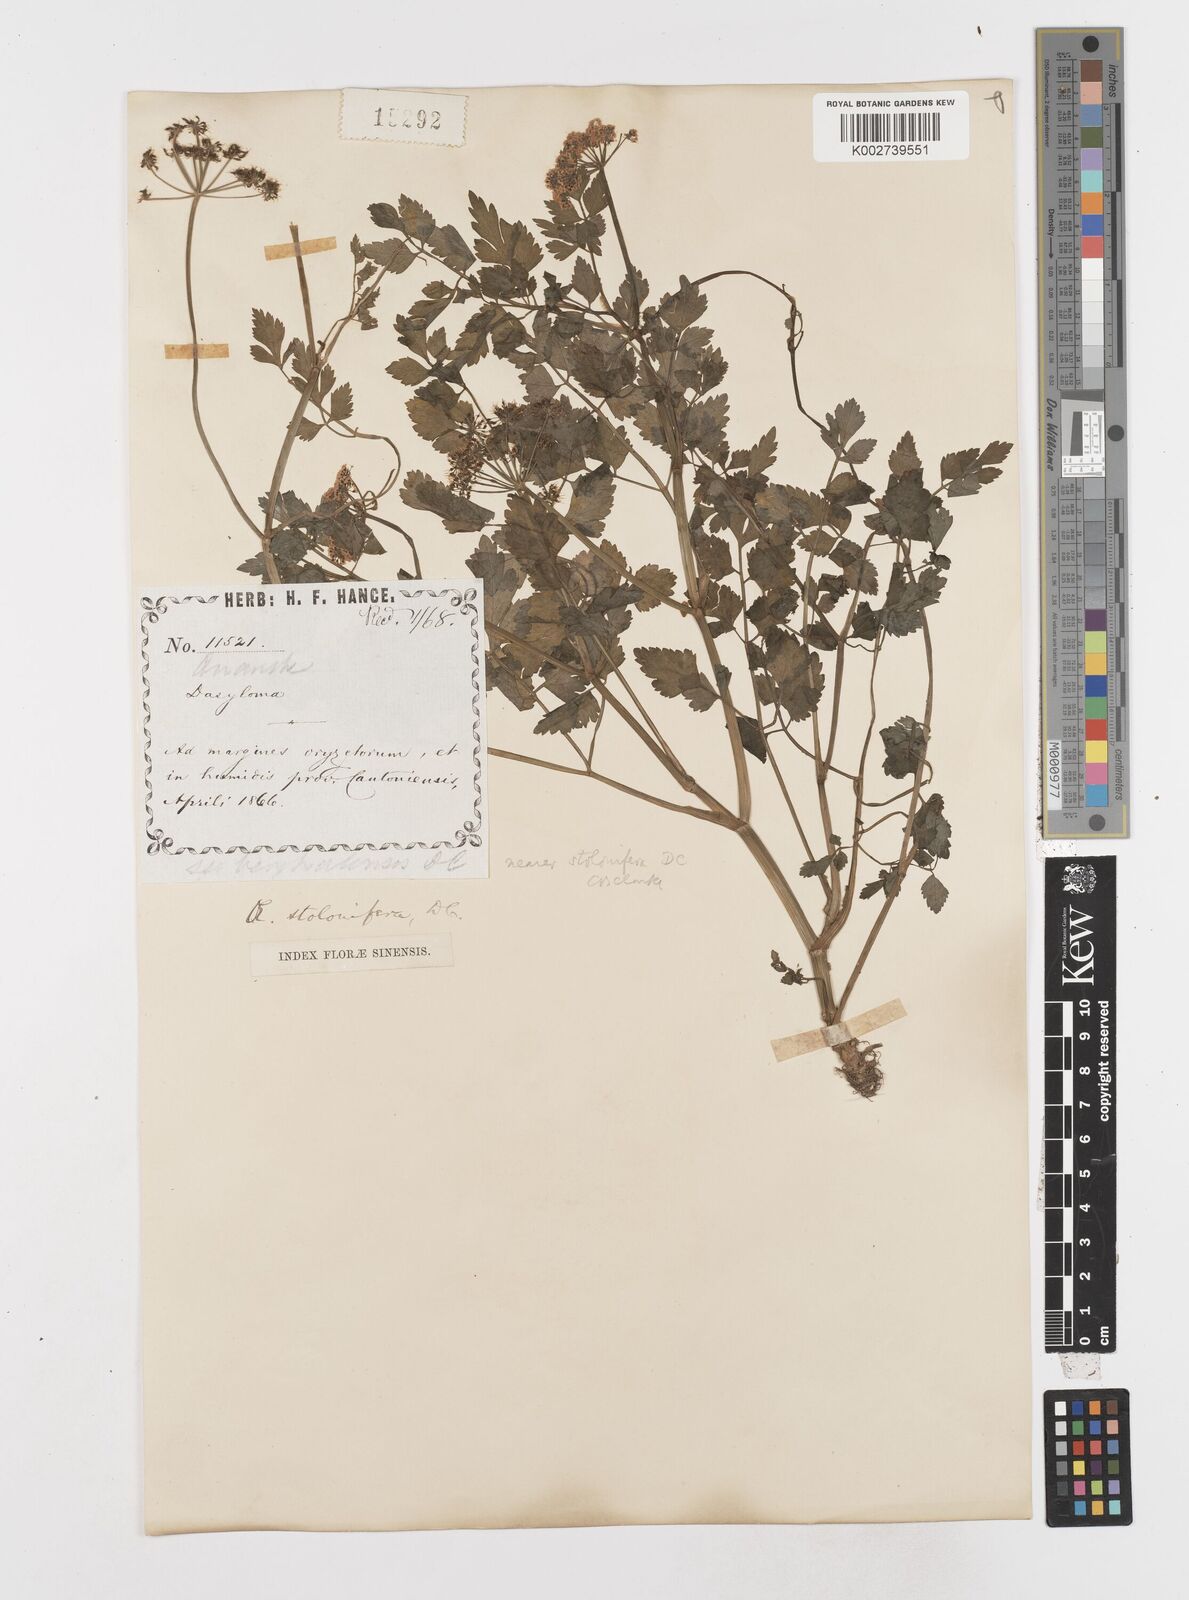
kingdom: Plantae
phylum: Tracheophyta
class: Magnoliopsida
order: Apiales
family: Apiaceae
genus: Oenanthe
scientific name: Oenanthe javanica
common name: Java water-dropwort
